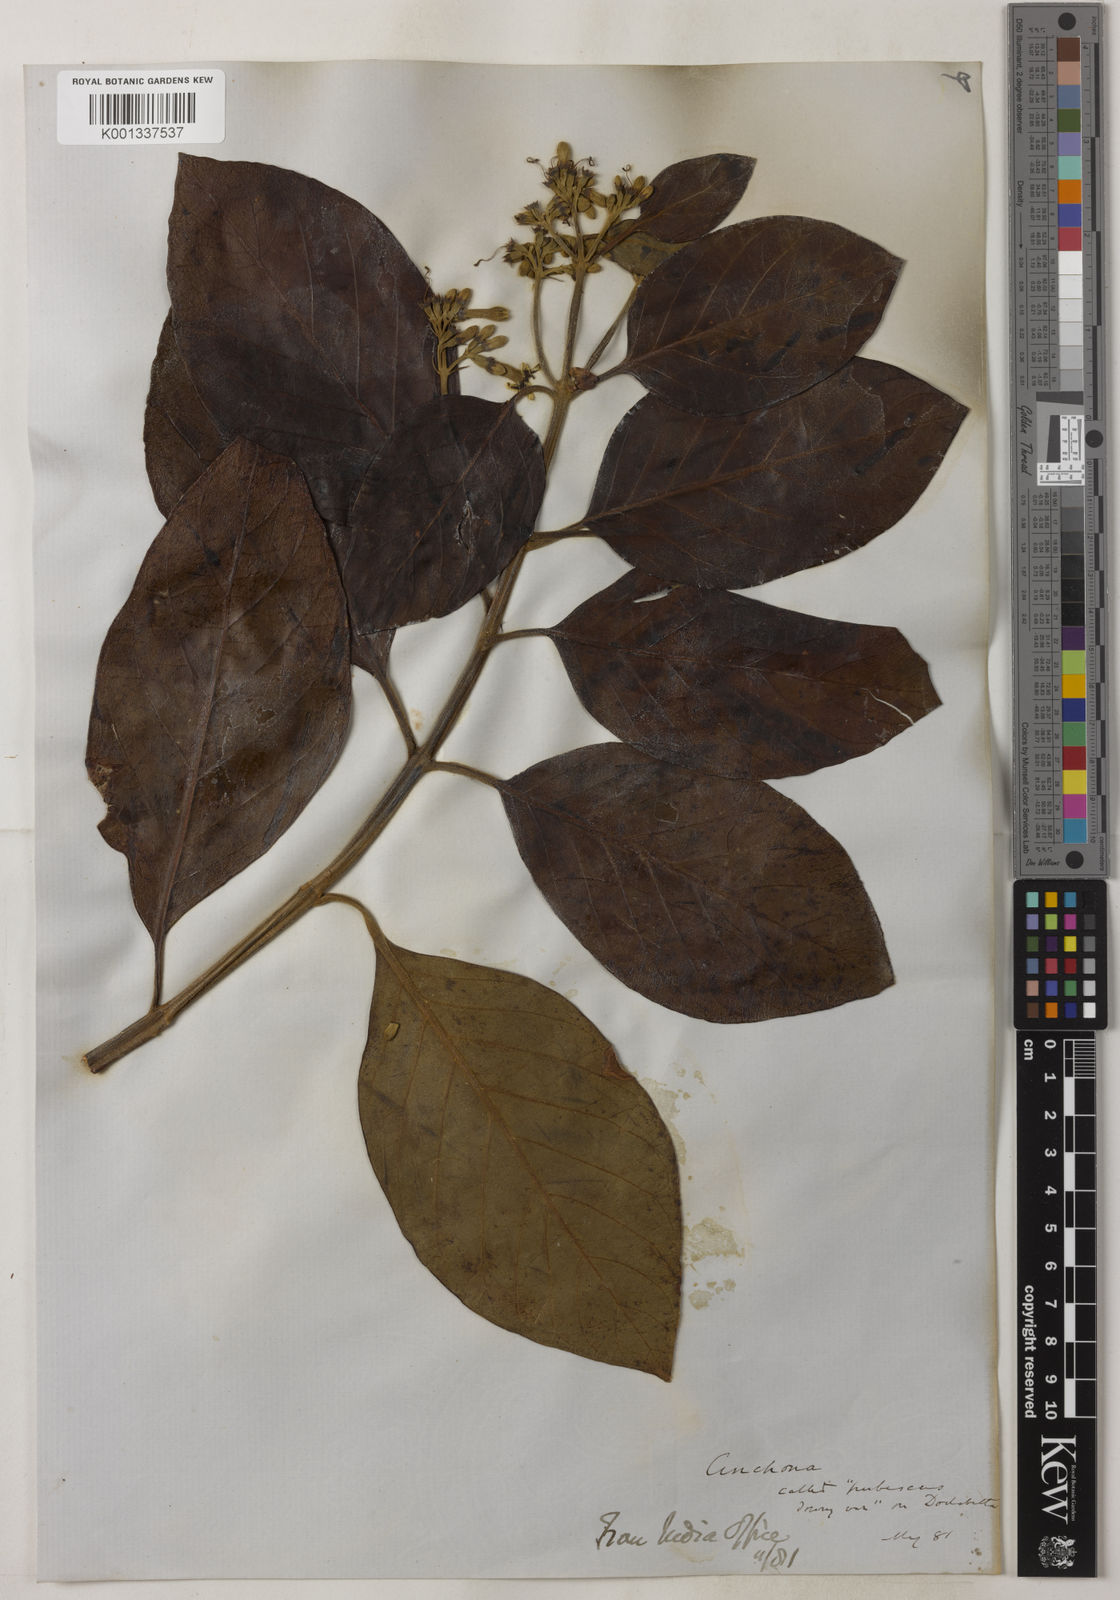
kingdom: Plantae
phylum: Tracheophyta
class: Magnoliopsida
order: Gentianales
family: Rubiaceae
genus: Cinchona
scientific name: Cinchona calisaya
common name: Ledgerbark
